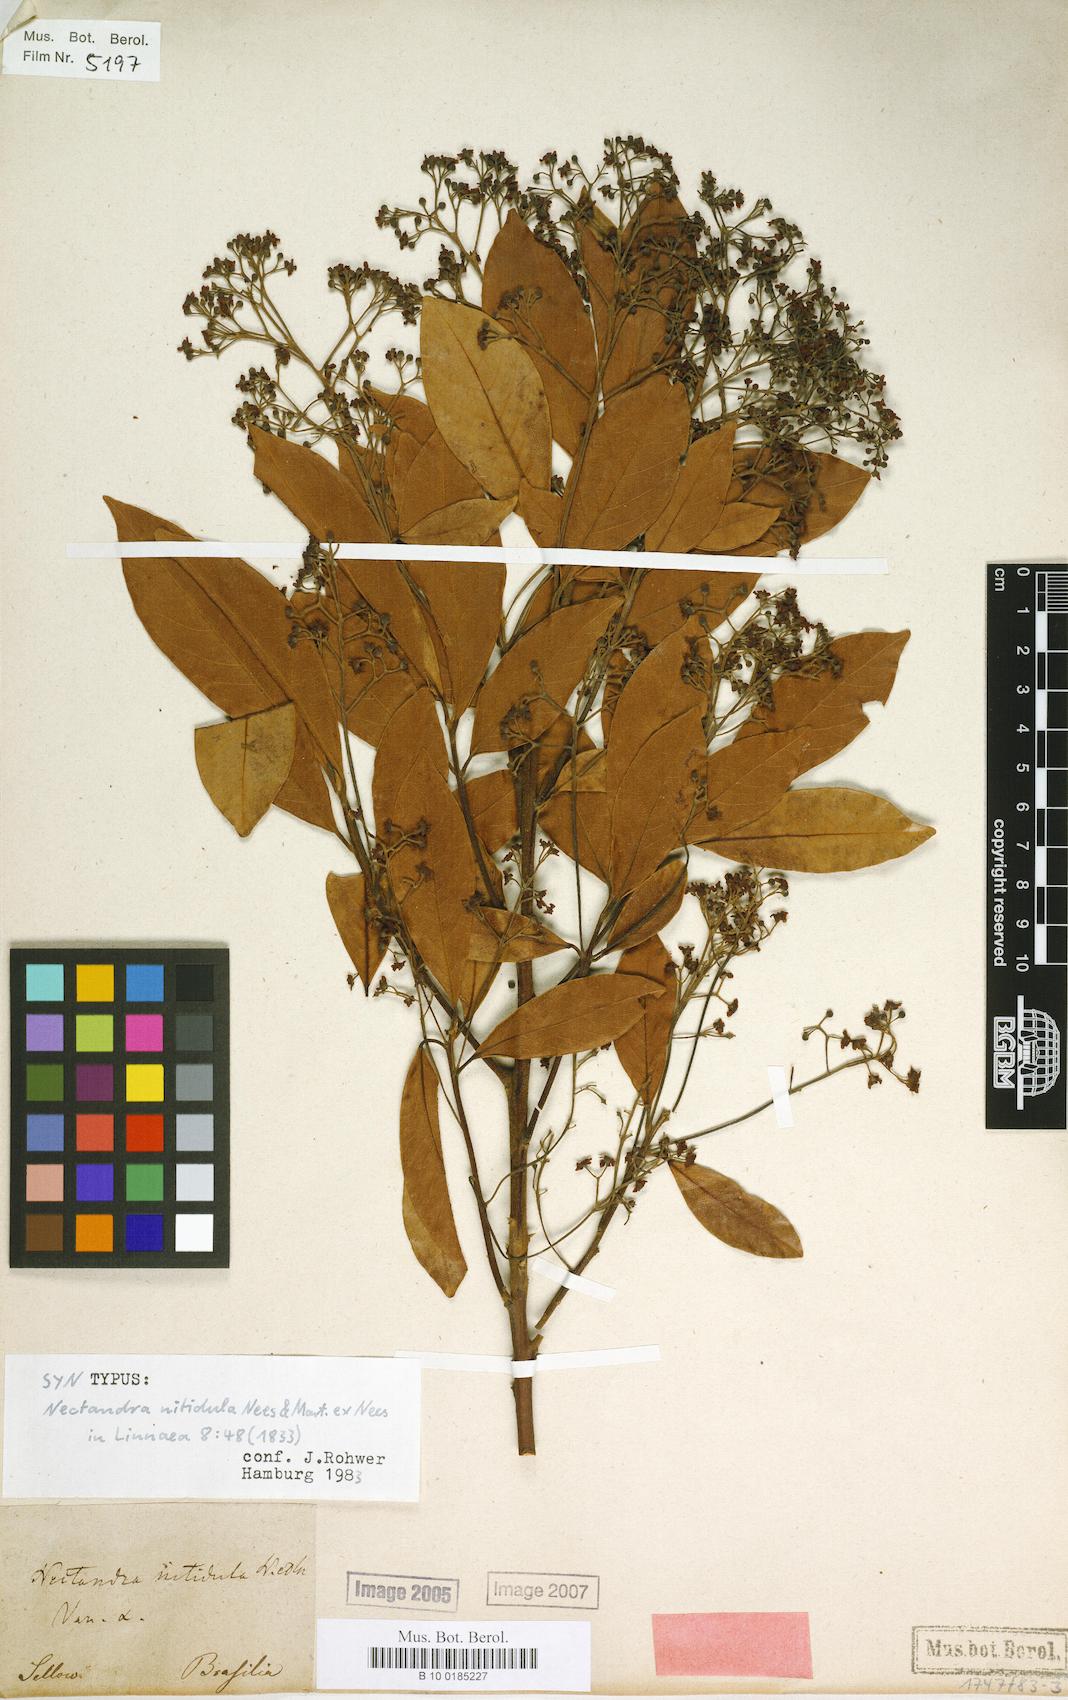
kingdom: Plantae
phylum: Tracheophyta
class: Magnoliopsida
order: Laurales
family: Lauraceae
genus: Nectandra
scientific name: Nectandra nitidula
